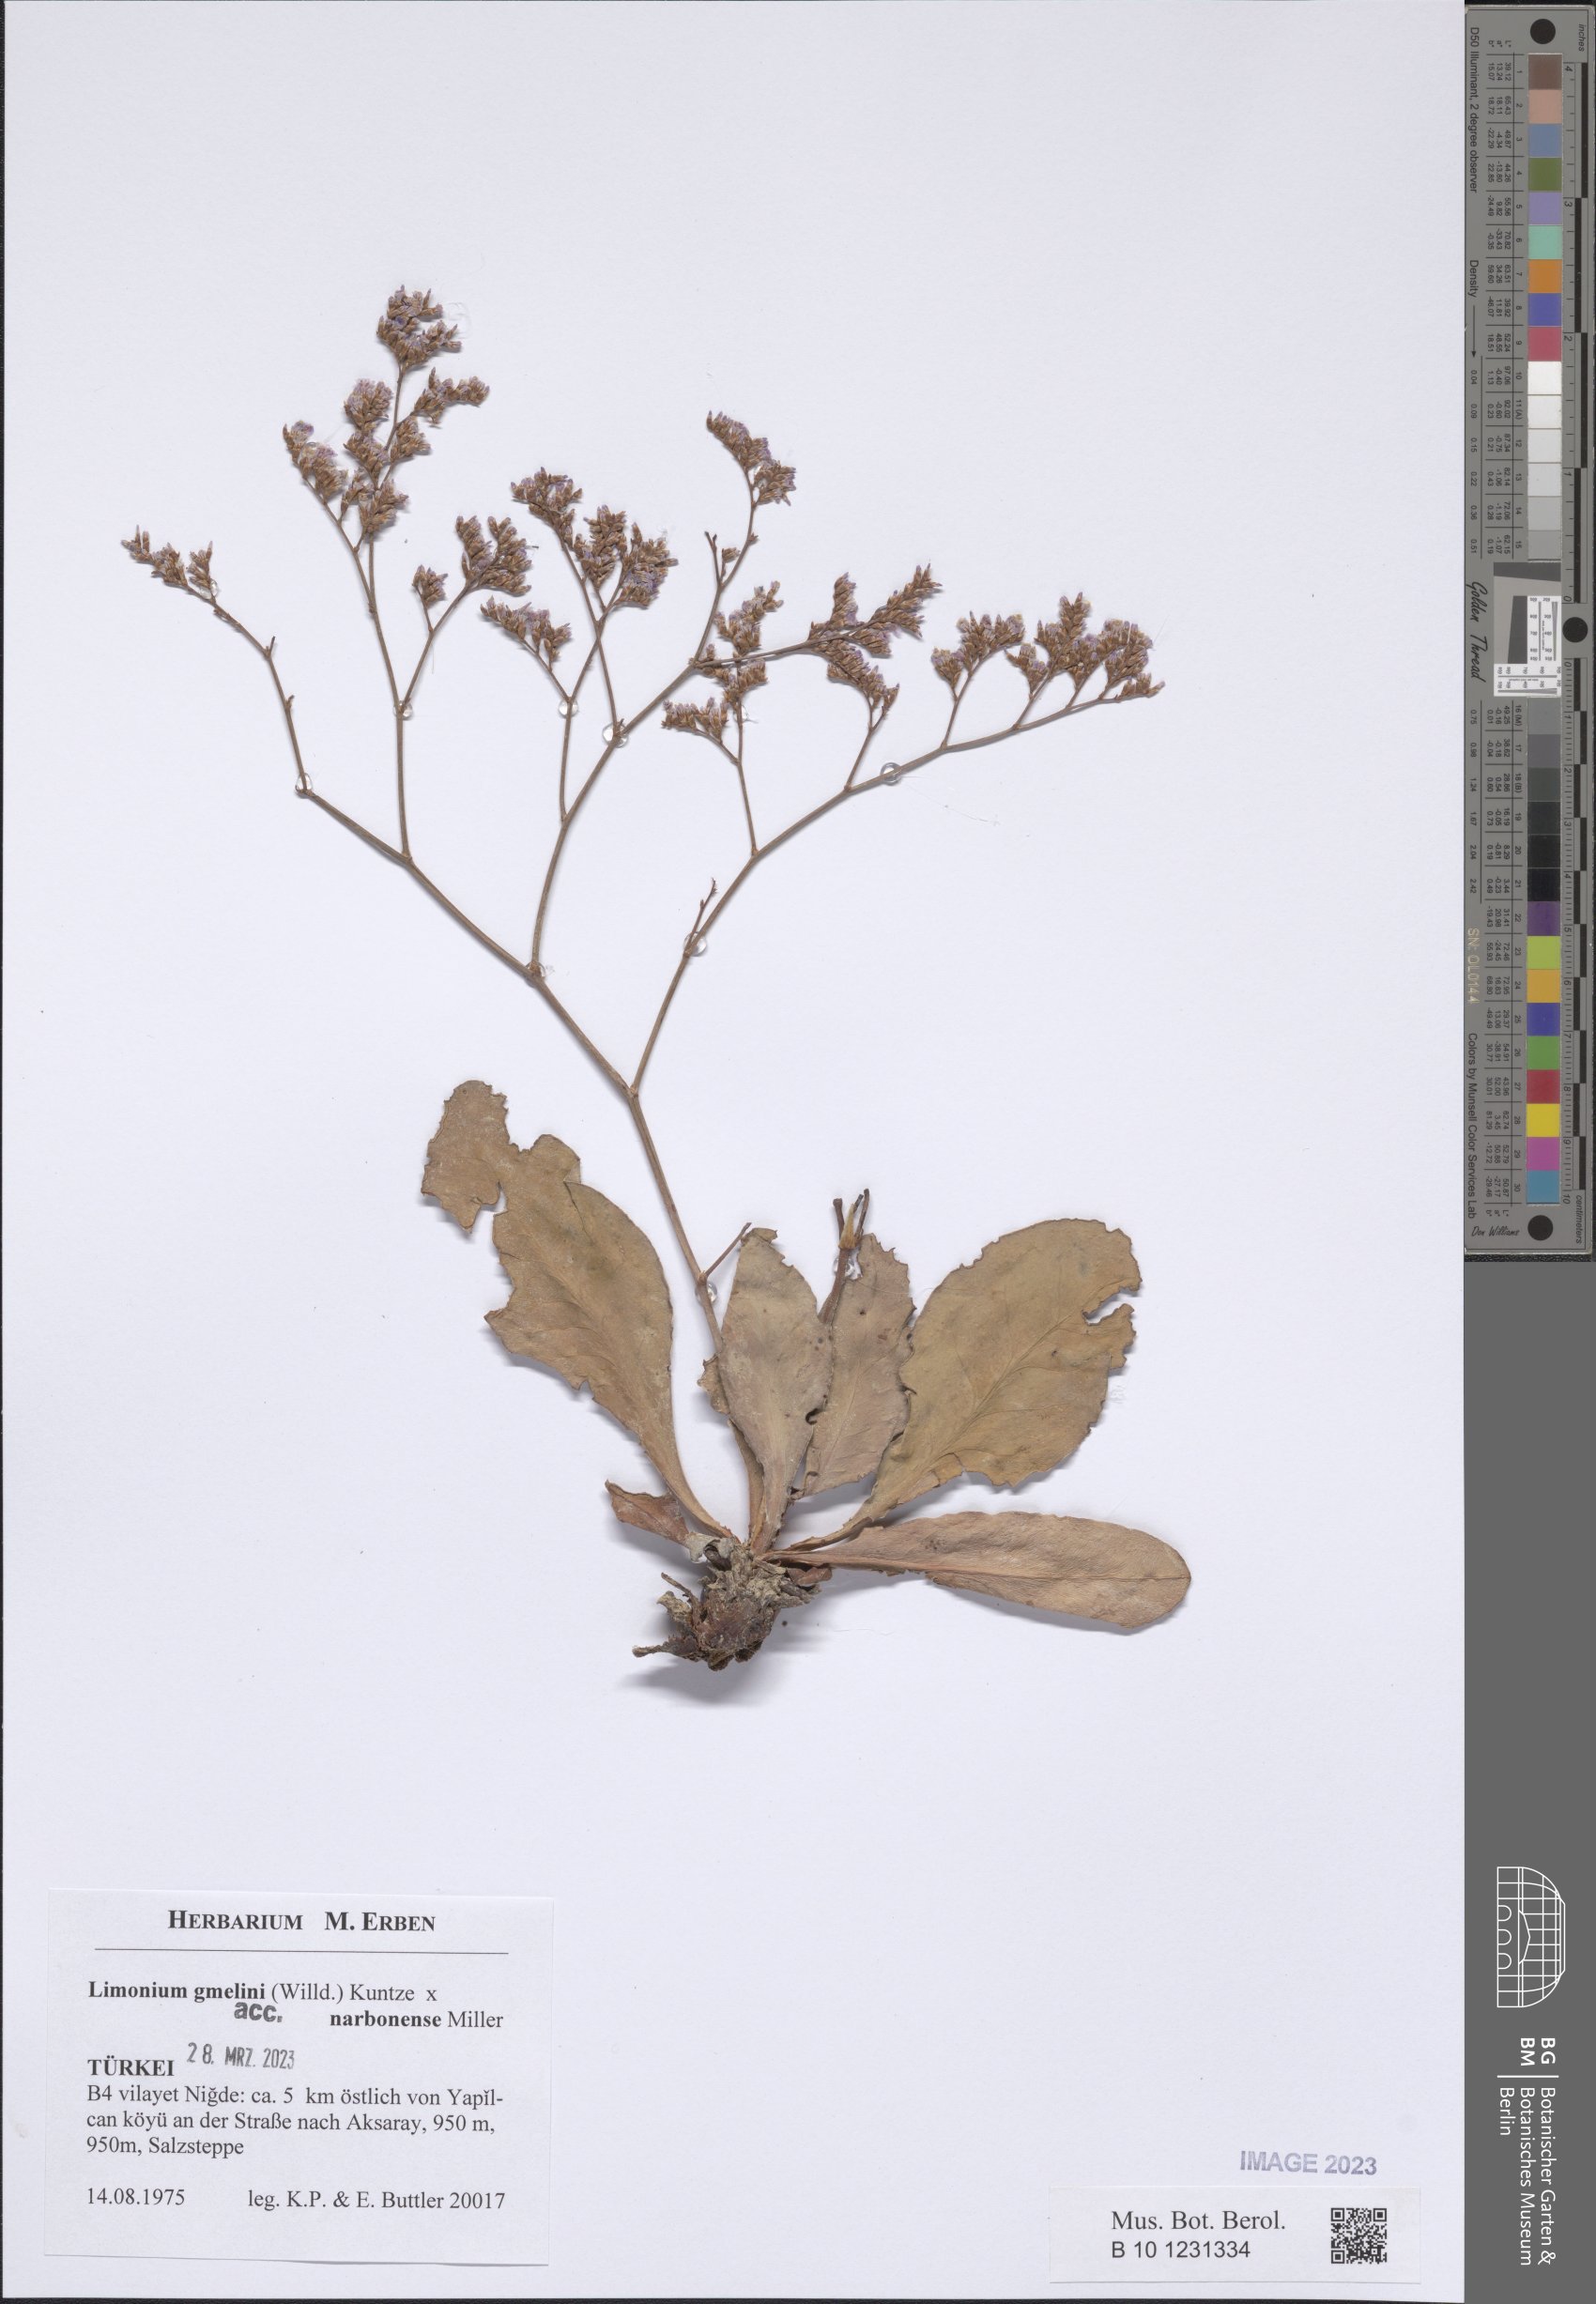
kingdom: Plantae
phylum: Tracheophyta
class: Magnoliopsida
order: Caryophyllales
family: Plumbaginaceae
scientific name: Plumbaginaceae
